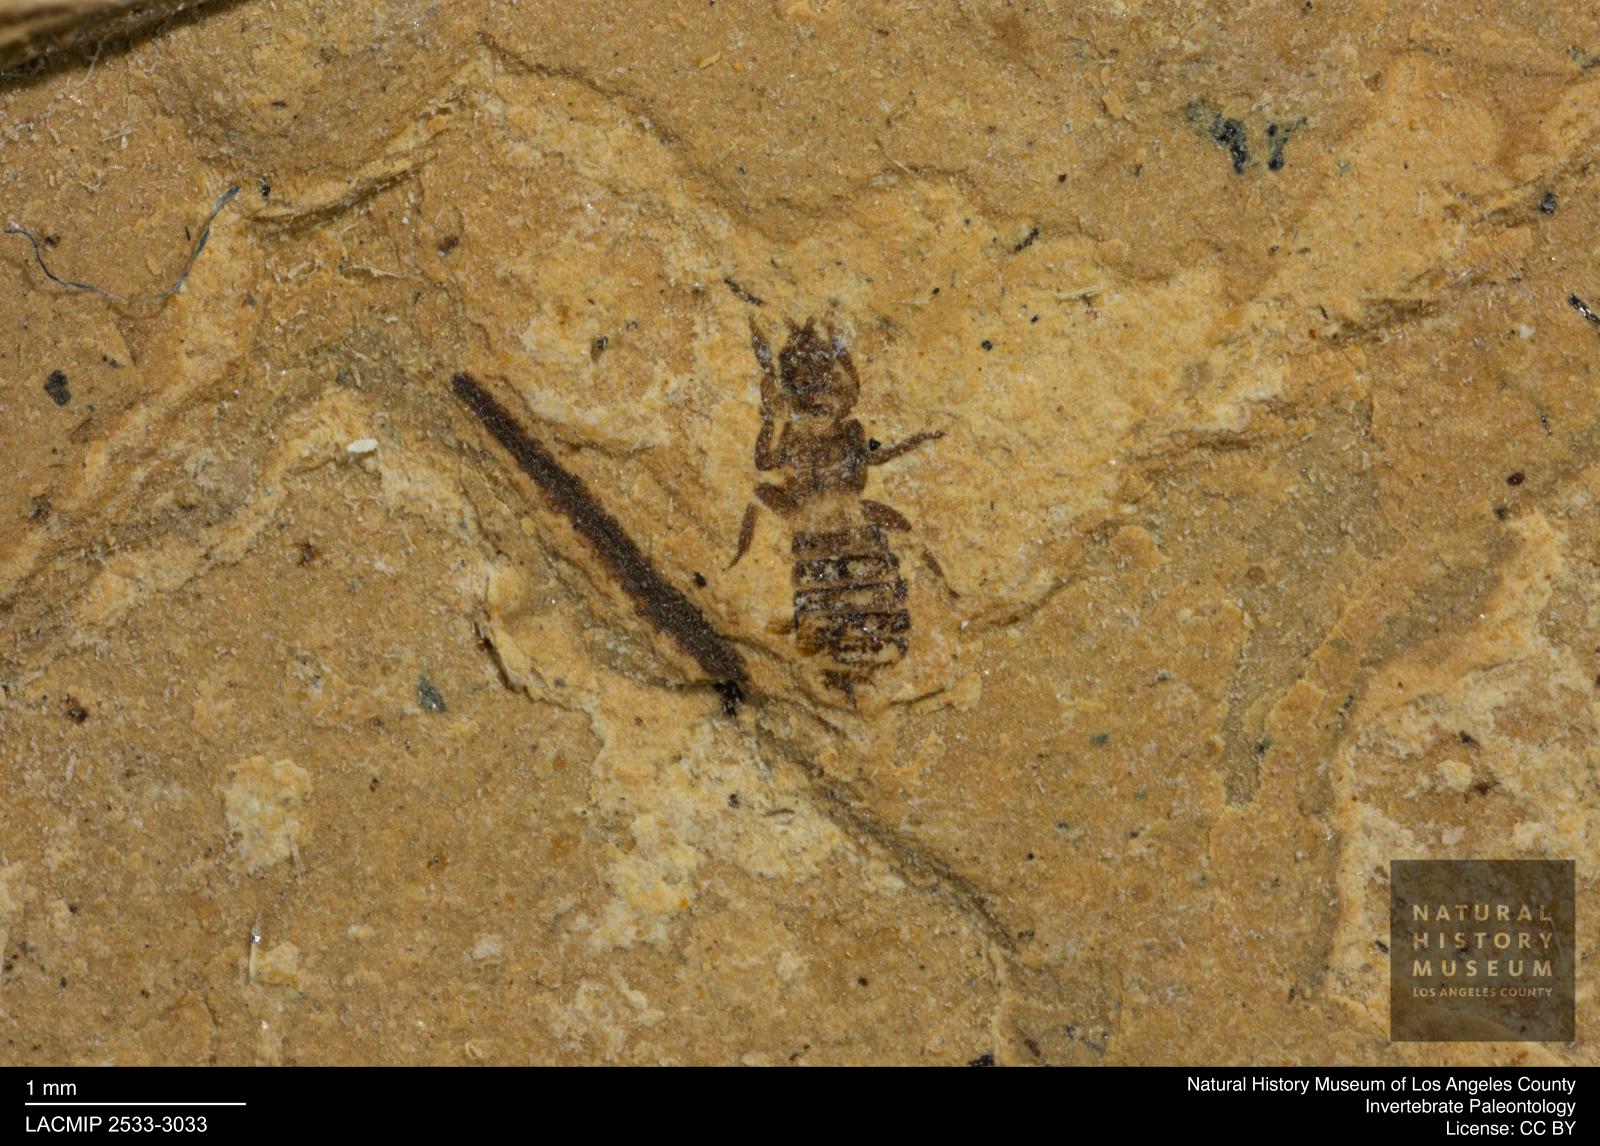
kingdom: Animalia
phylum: Arthropoda
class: Insecta
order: Thysanoptera
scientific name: Thysanoptera
